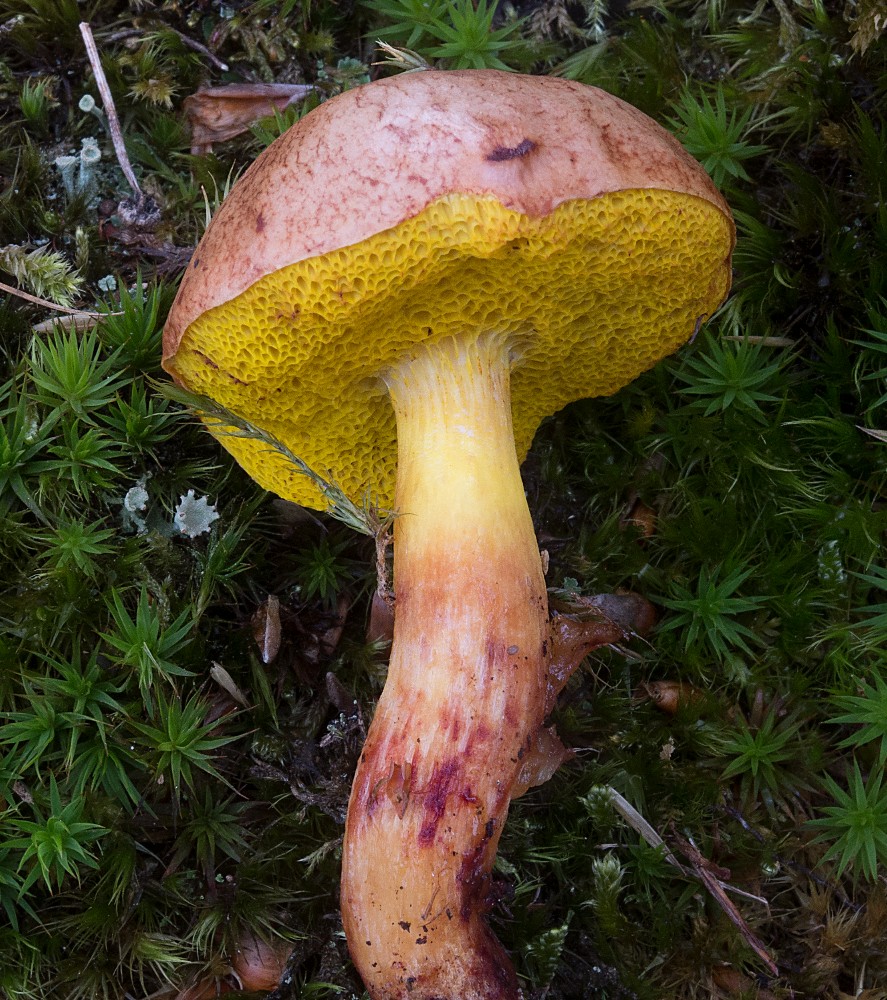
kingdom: Fungi
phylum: Basidiomycota
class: Agaricomycetes
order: Boletales
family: Boletaceae
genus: Aureoboletus
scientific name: Aureoboletus gentilis
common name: guldrørhat
